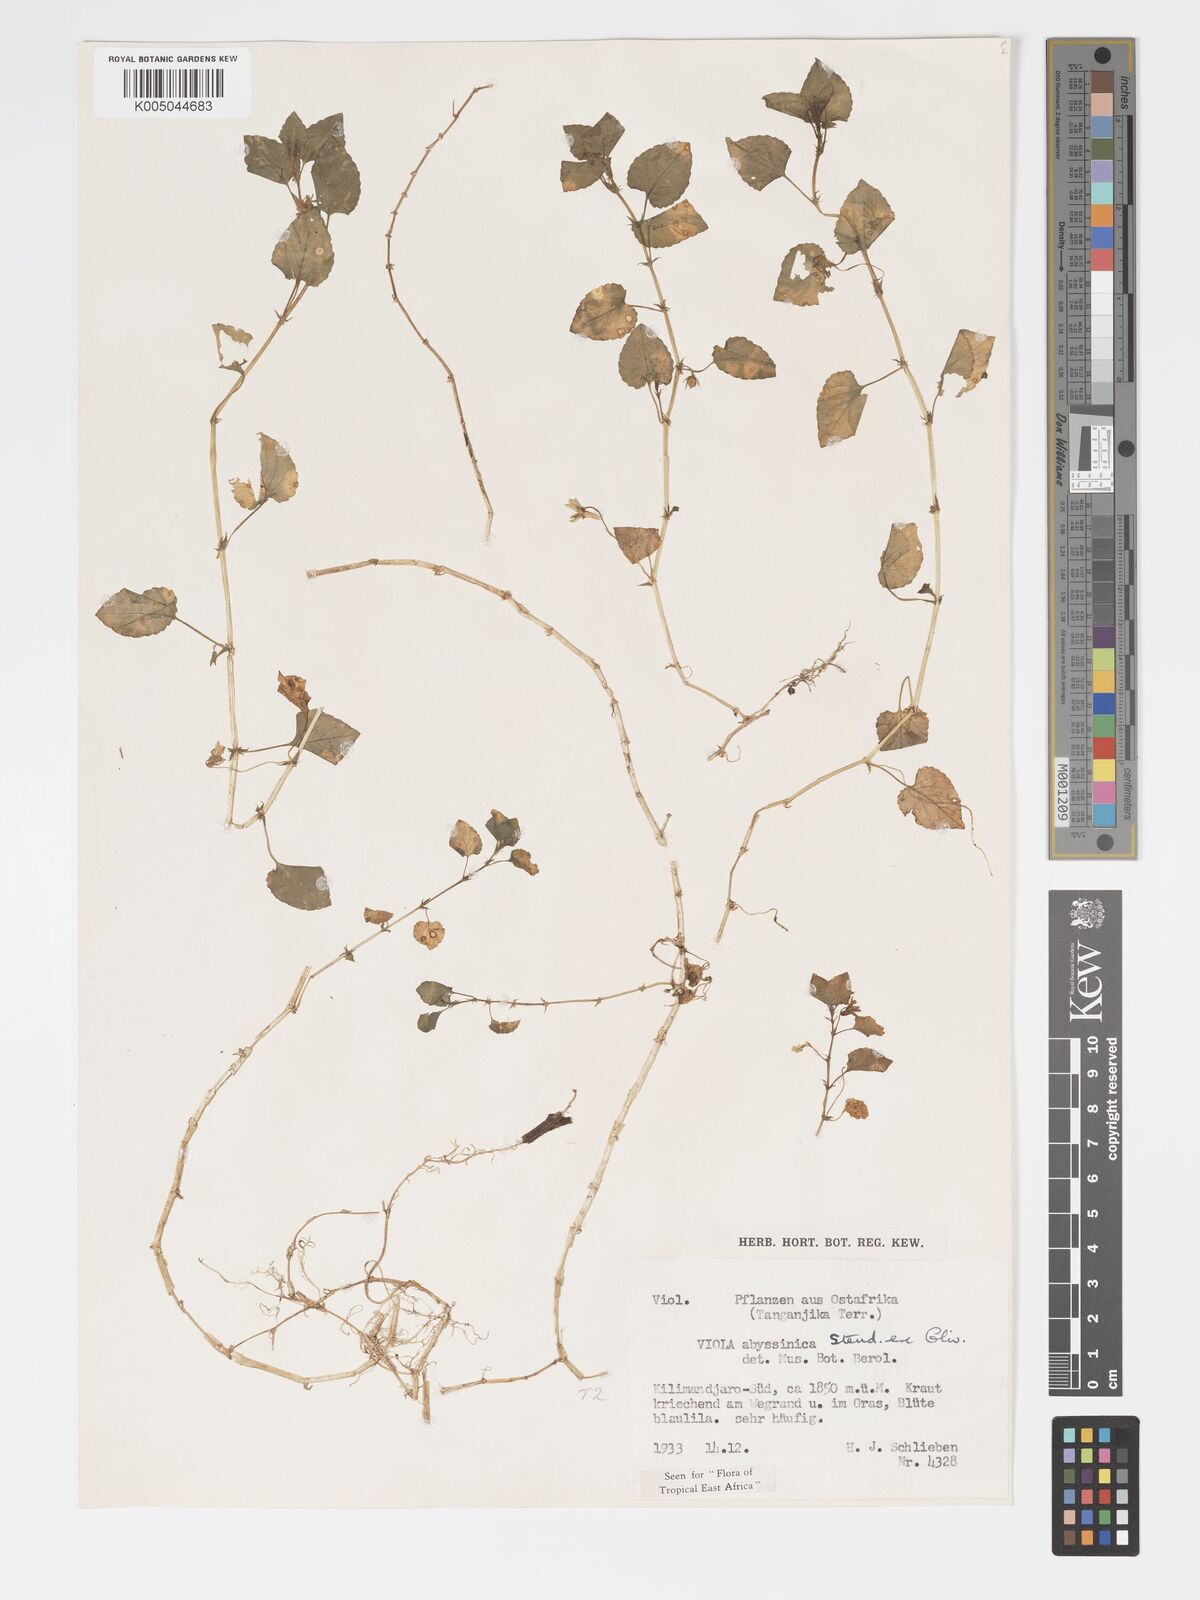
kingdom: Plantae
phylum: Tracheophyta
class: Magnoliopsida
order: Malpighiales
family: Violaceae
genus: Viola
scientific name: Viola abyssinica
